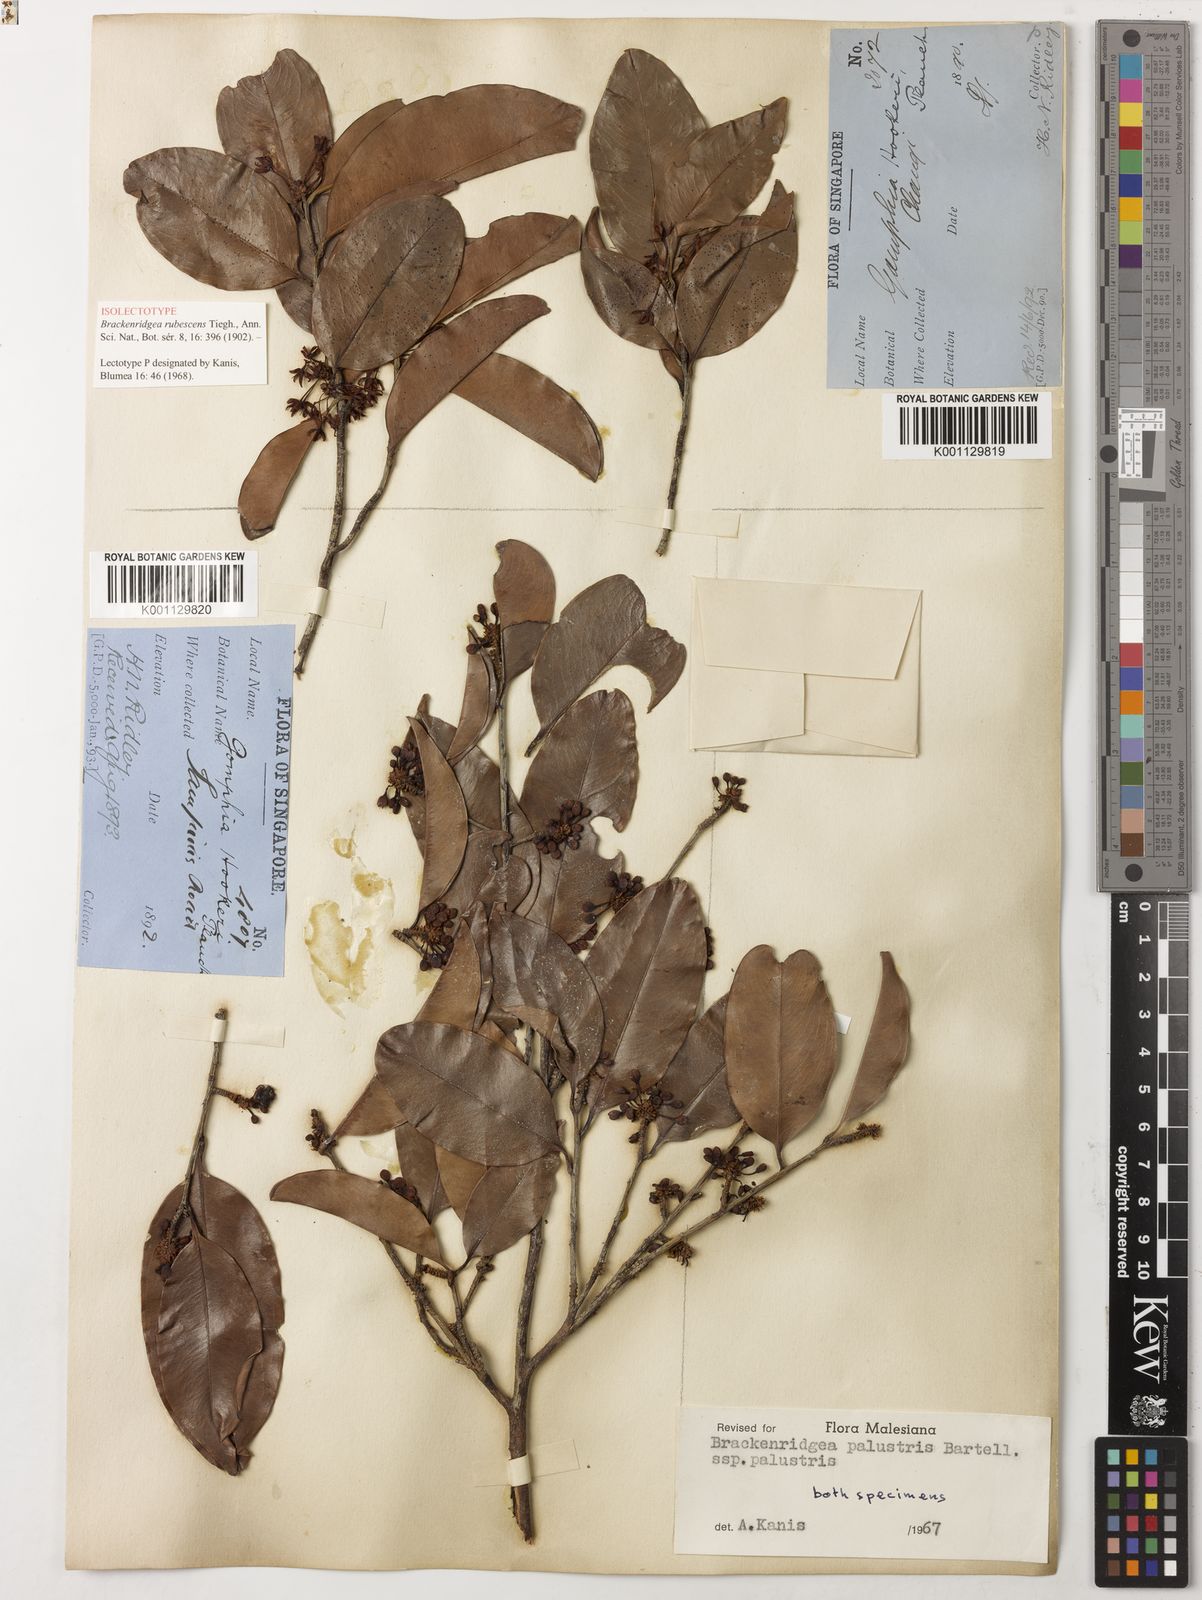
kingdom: Plantae
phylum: Tracheophyta
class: Magnoliopsida
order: Malpighiales
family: Ochnaceae
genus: Brackenridgea
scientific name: Brackenridgea palustris
